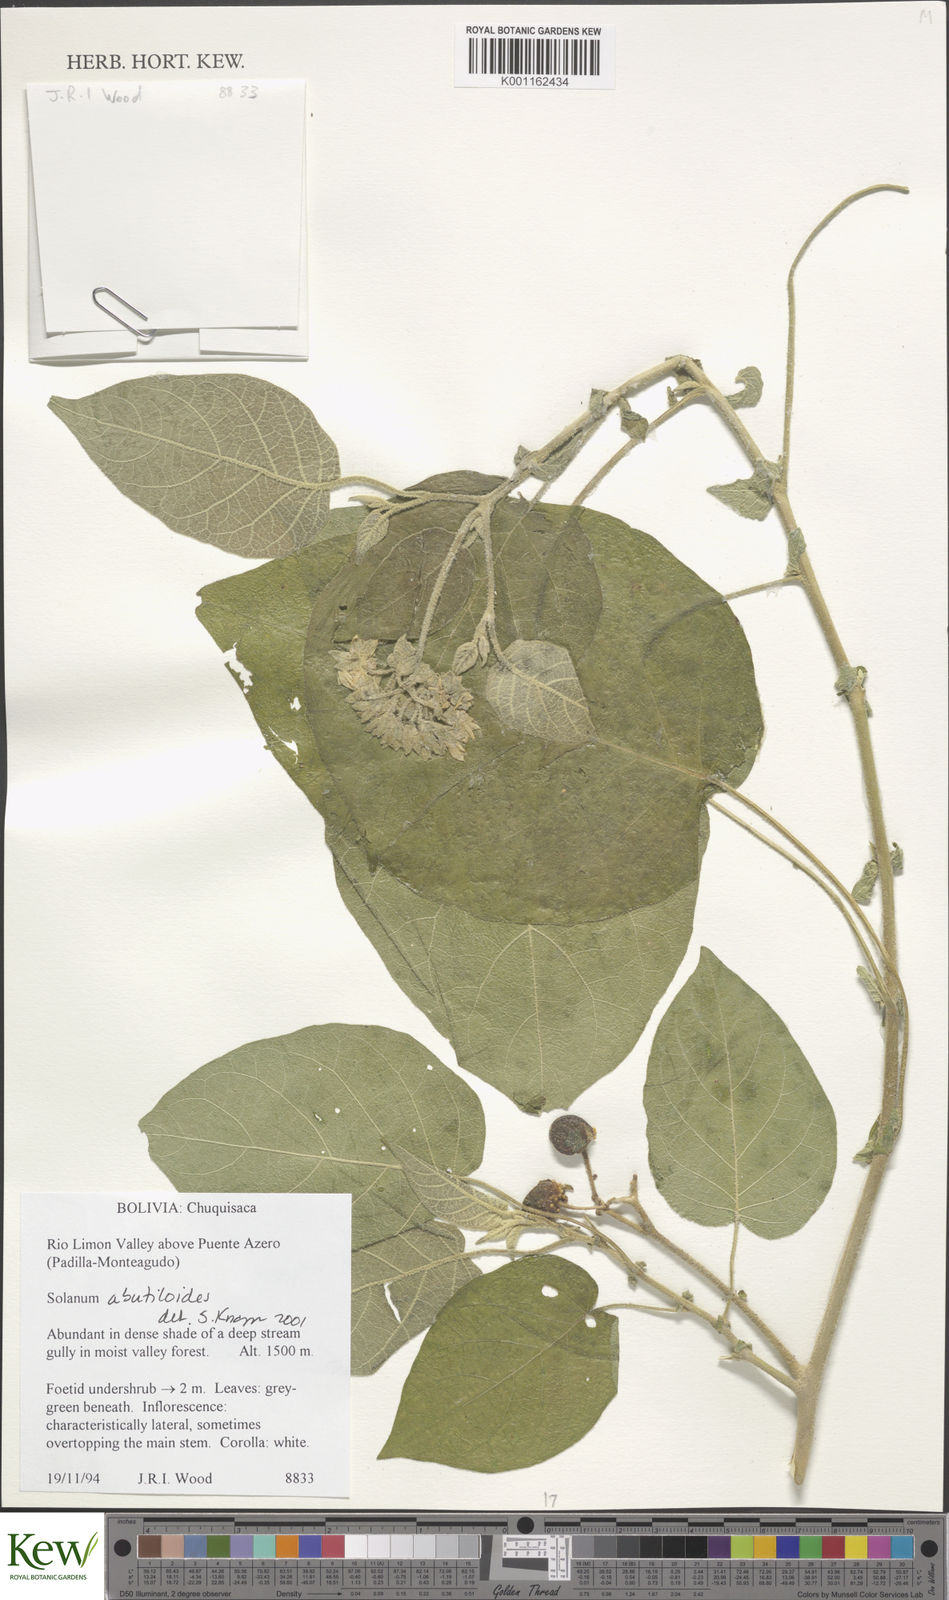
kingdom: Plantae
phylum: Tracheophyta
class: Magnoliopsida
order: Solanales
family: Solanaceae
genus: Solanum
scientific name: Solanum abutiloides
